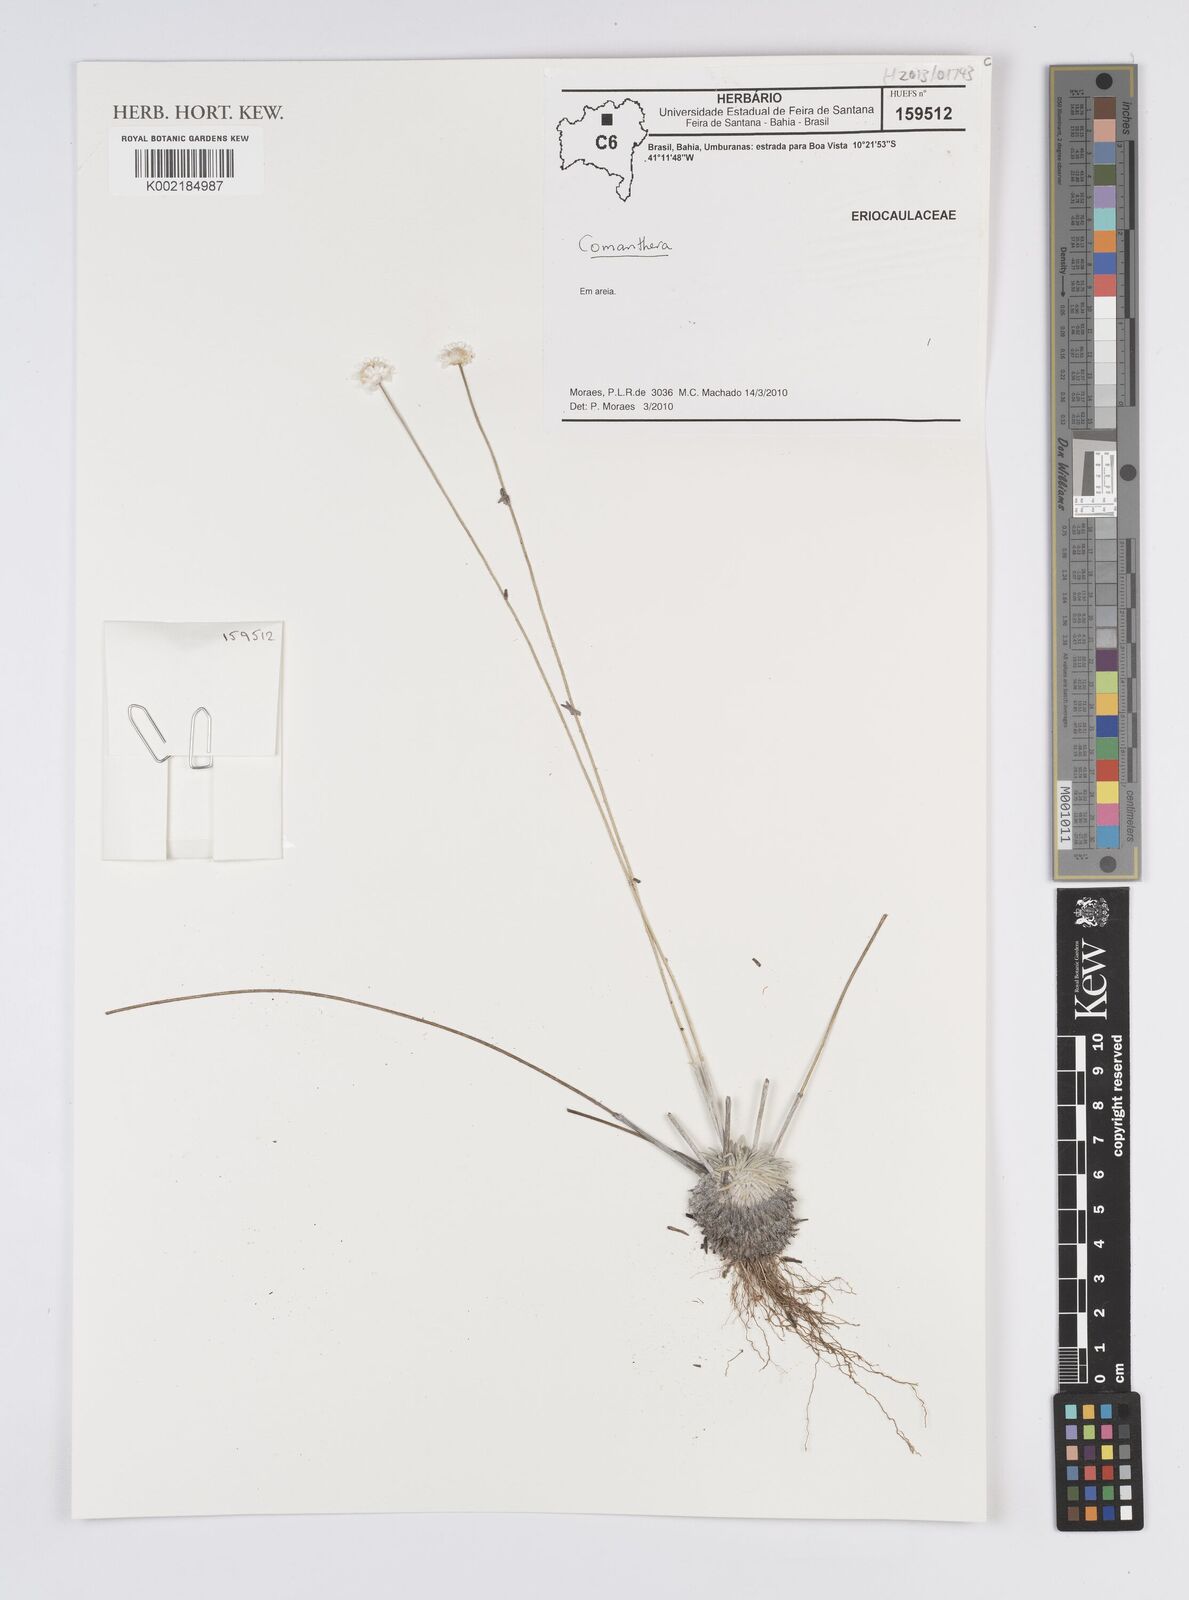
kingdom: Plantae
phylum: Tracheophyta
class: Liliopsida
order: Poales
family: Eriocaulaceae
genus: Comanthera
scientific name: Comanthera
